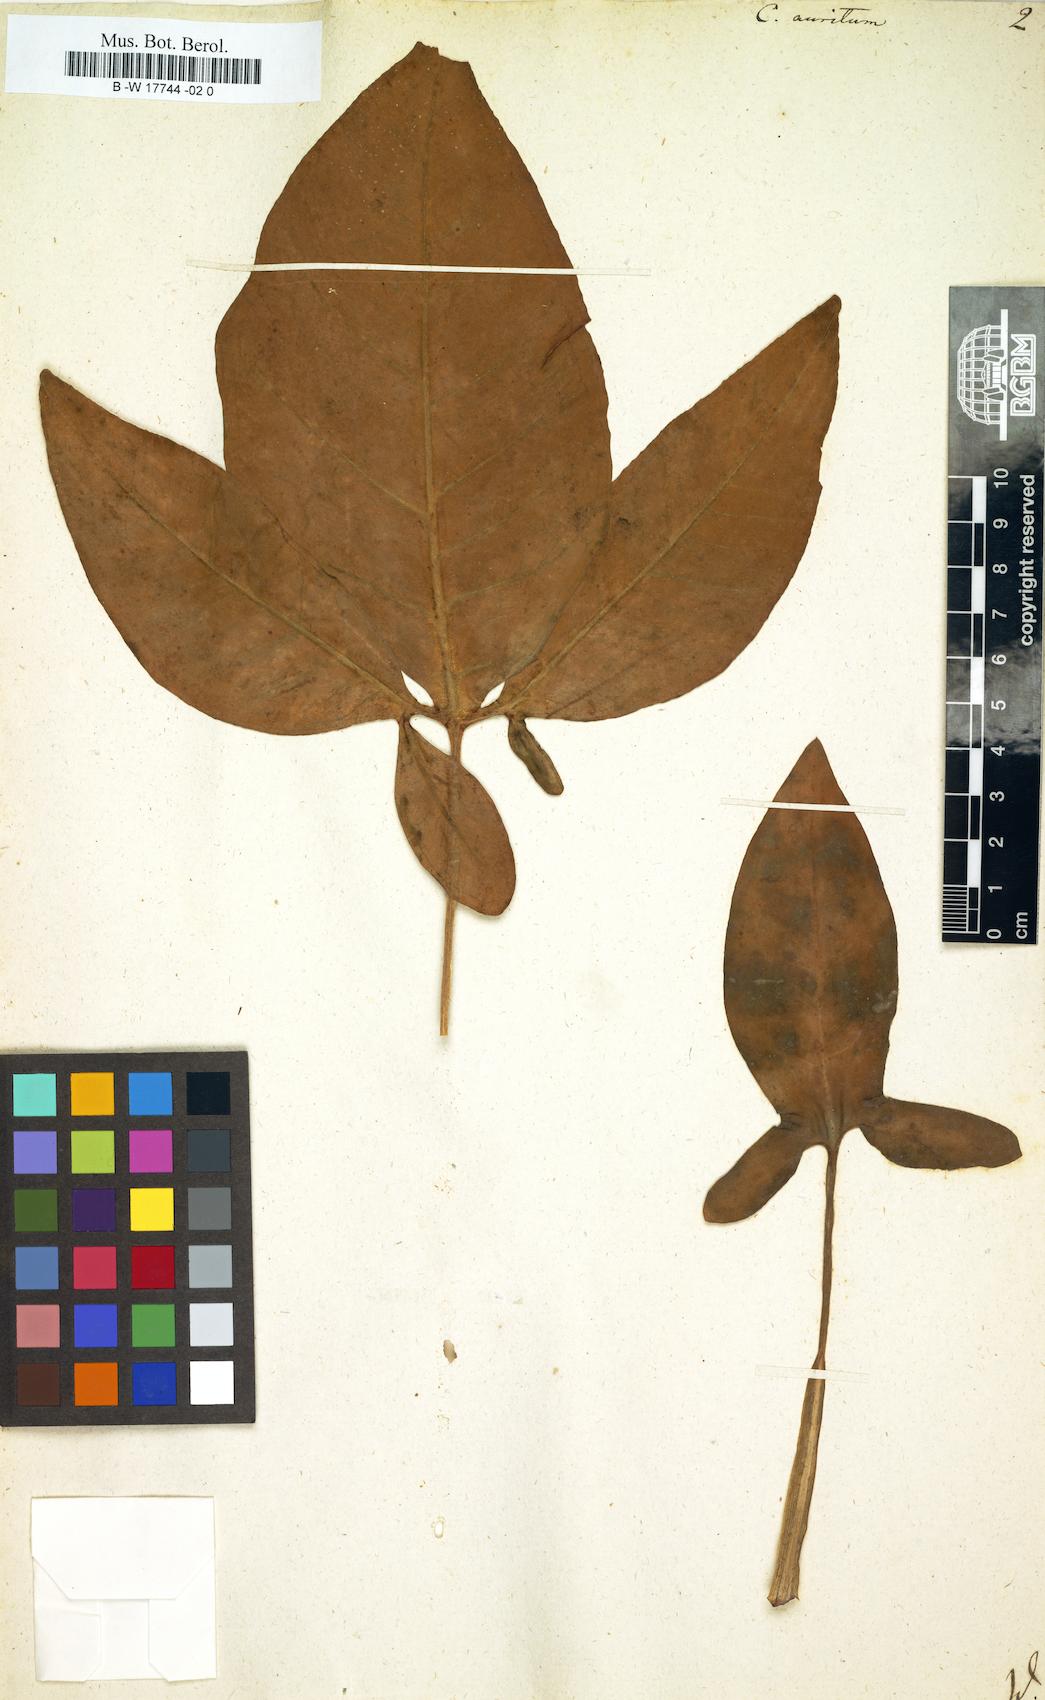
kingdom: Plantae
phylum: Tracheophyta
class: Liliopsida
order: Alismatales
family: Araceae
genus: Syngonium
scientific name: Syngonium auritum
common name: Five-fingers
